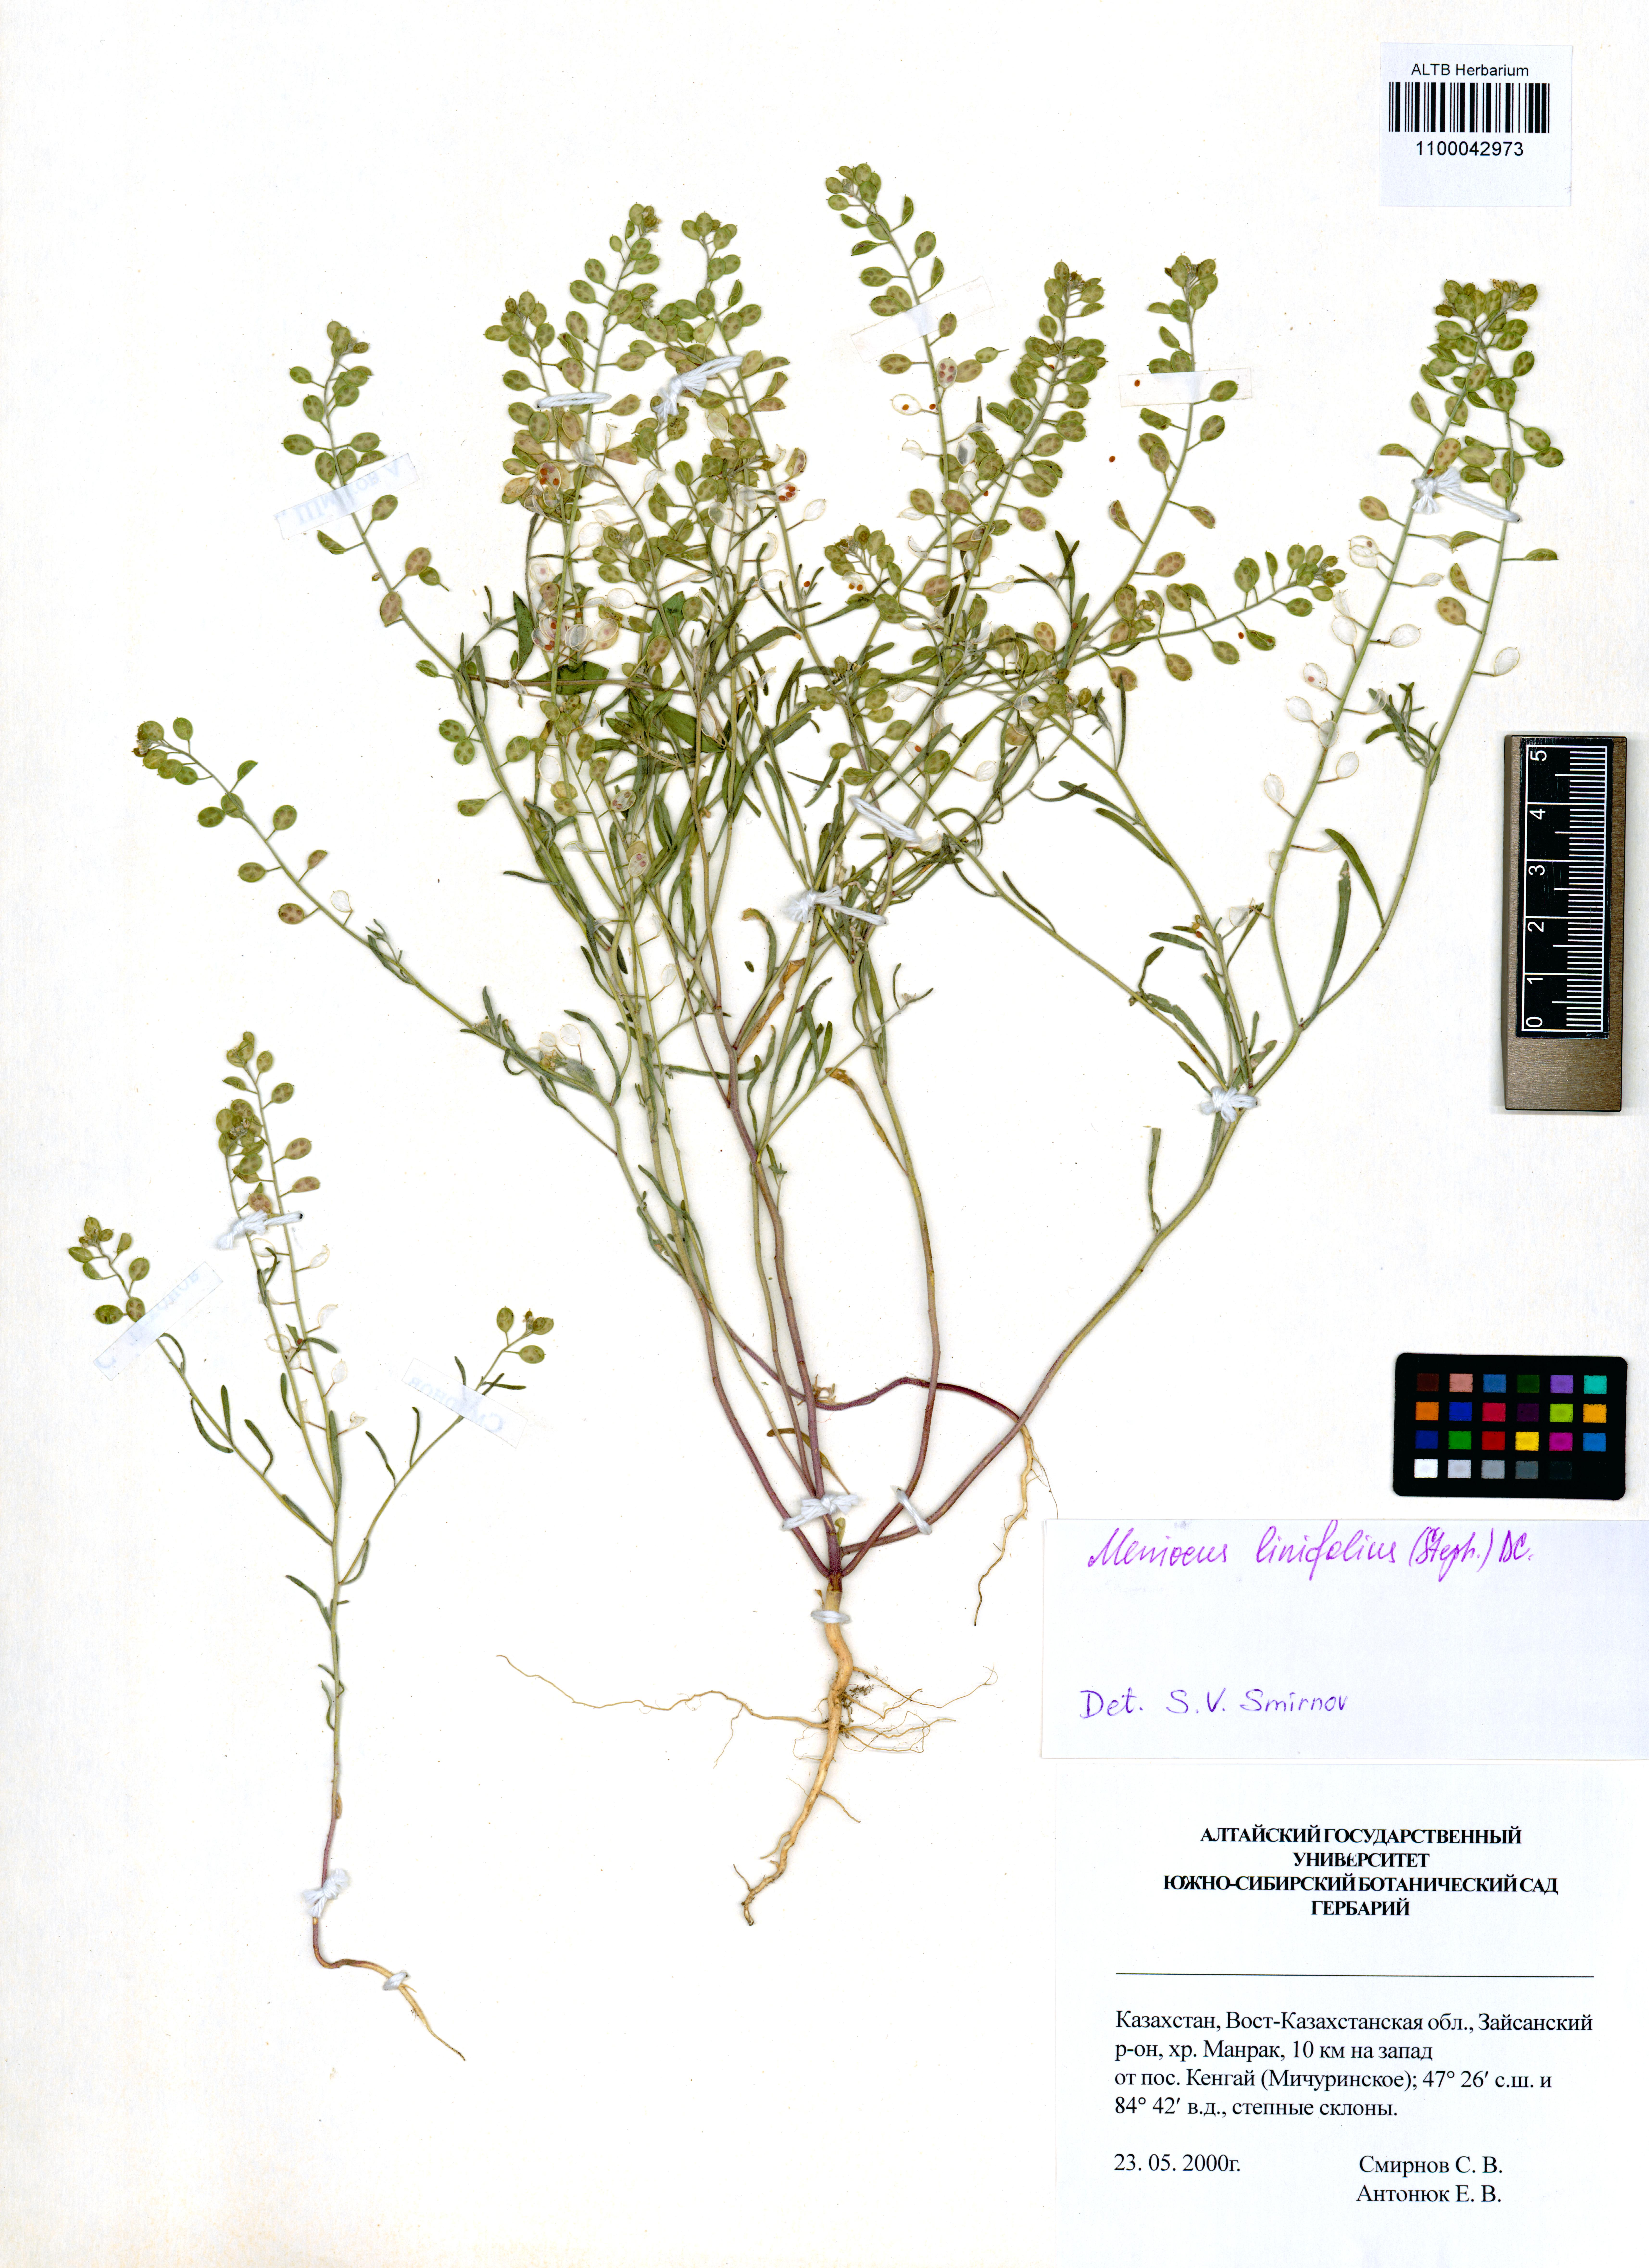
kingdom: Plantae
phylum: Tracheophyta
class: Magnoliopsida
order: Brassicales
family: Brassicaceae
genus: Meniocus
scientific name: Meniocus linifolius
